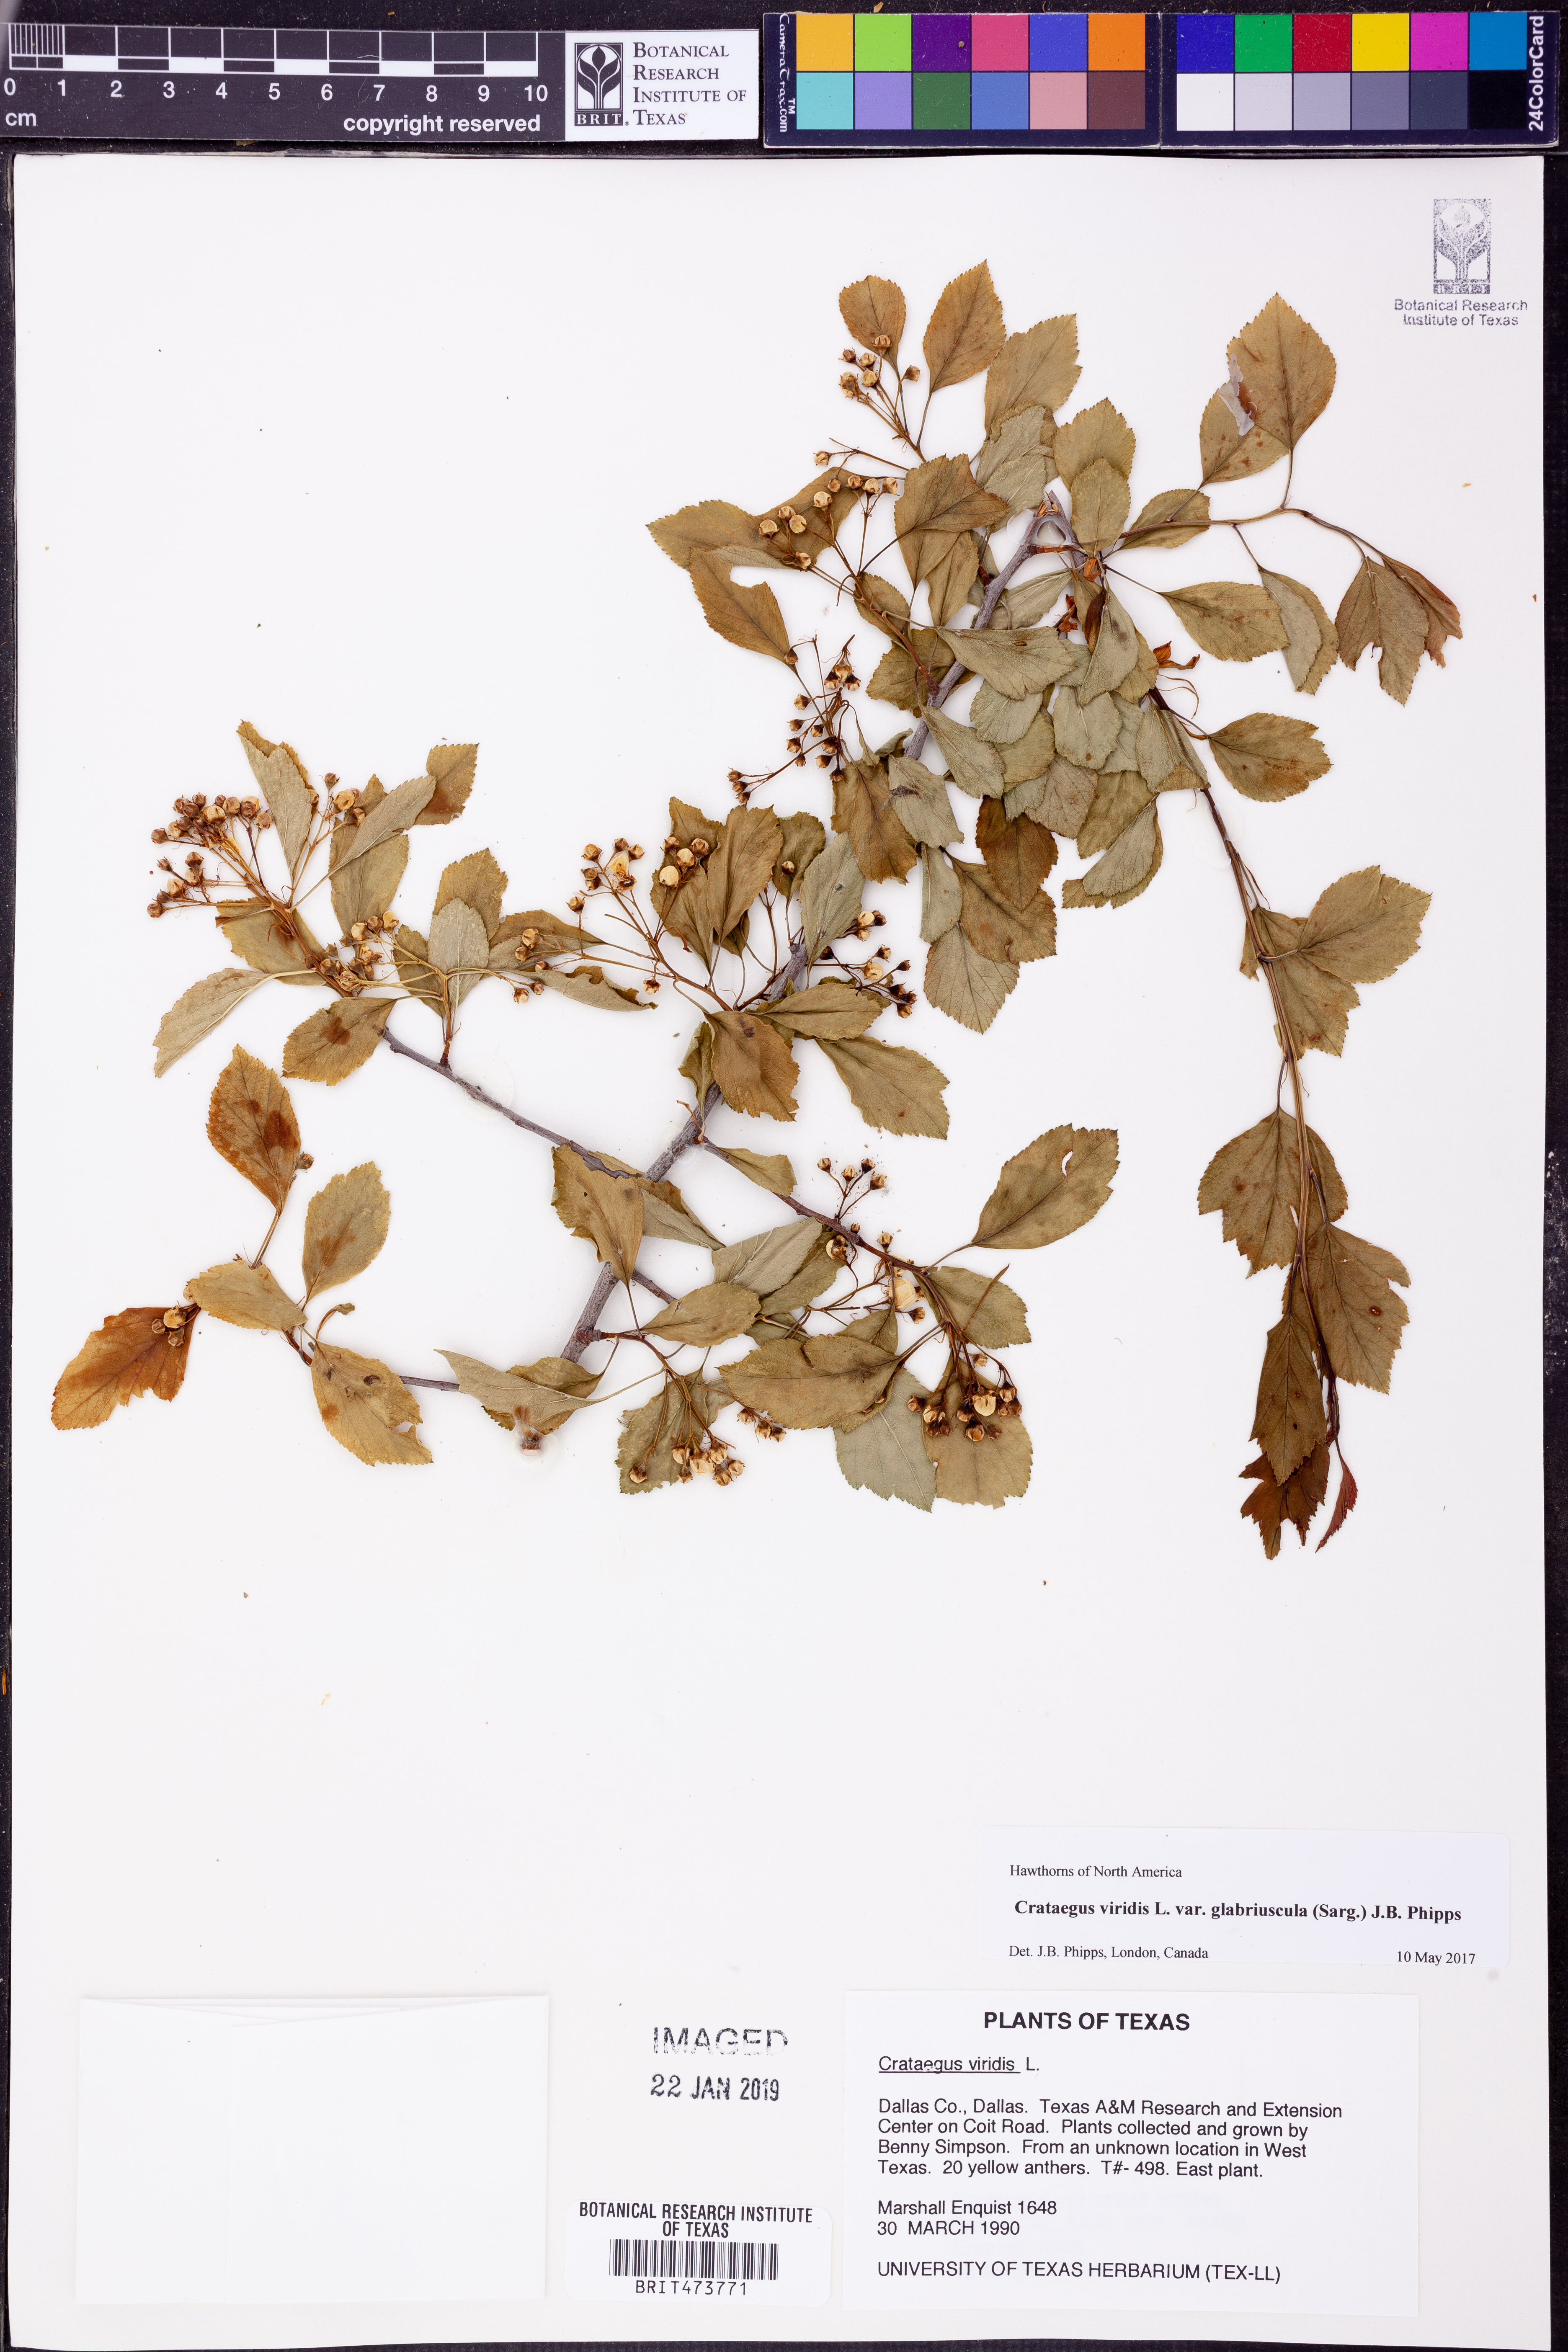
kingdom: Plantae
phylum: Tracheophyta
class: Magnoliopsida
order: Rosales
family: Rosaceae
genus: Crataegus
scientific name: Crataegus viridis
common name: Southernthorn
